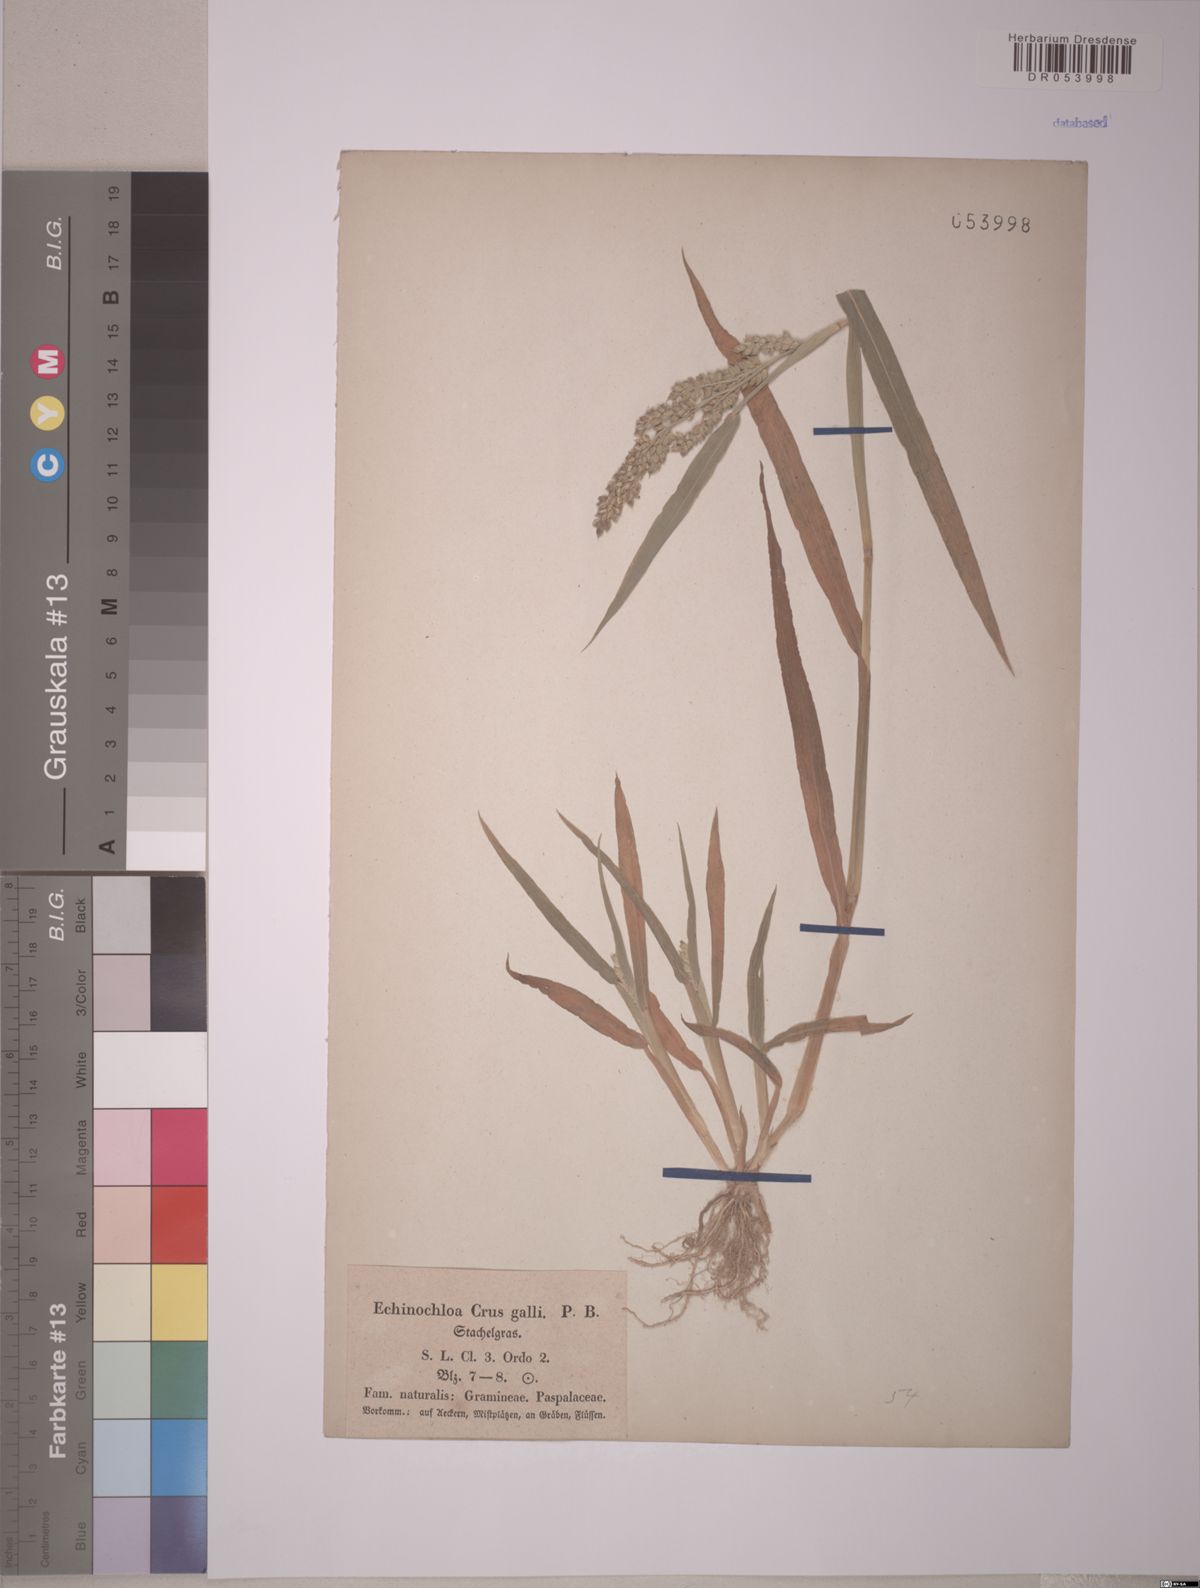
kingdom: Plantae
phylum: Tracheophyta
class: Liliopsida
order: Poales
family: Poaceae
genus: Echinochloa
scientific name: Echinochloa crus-galli
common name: Cockspur
